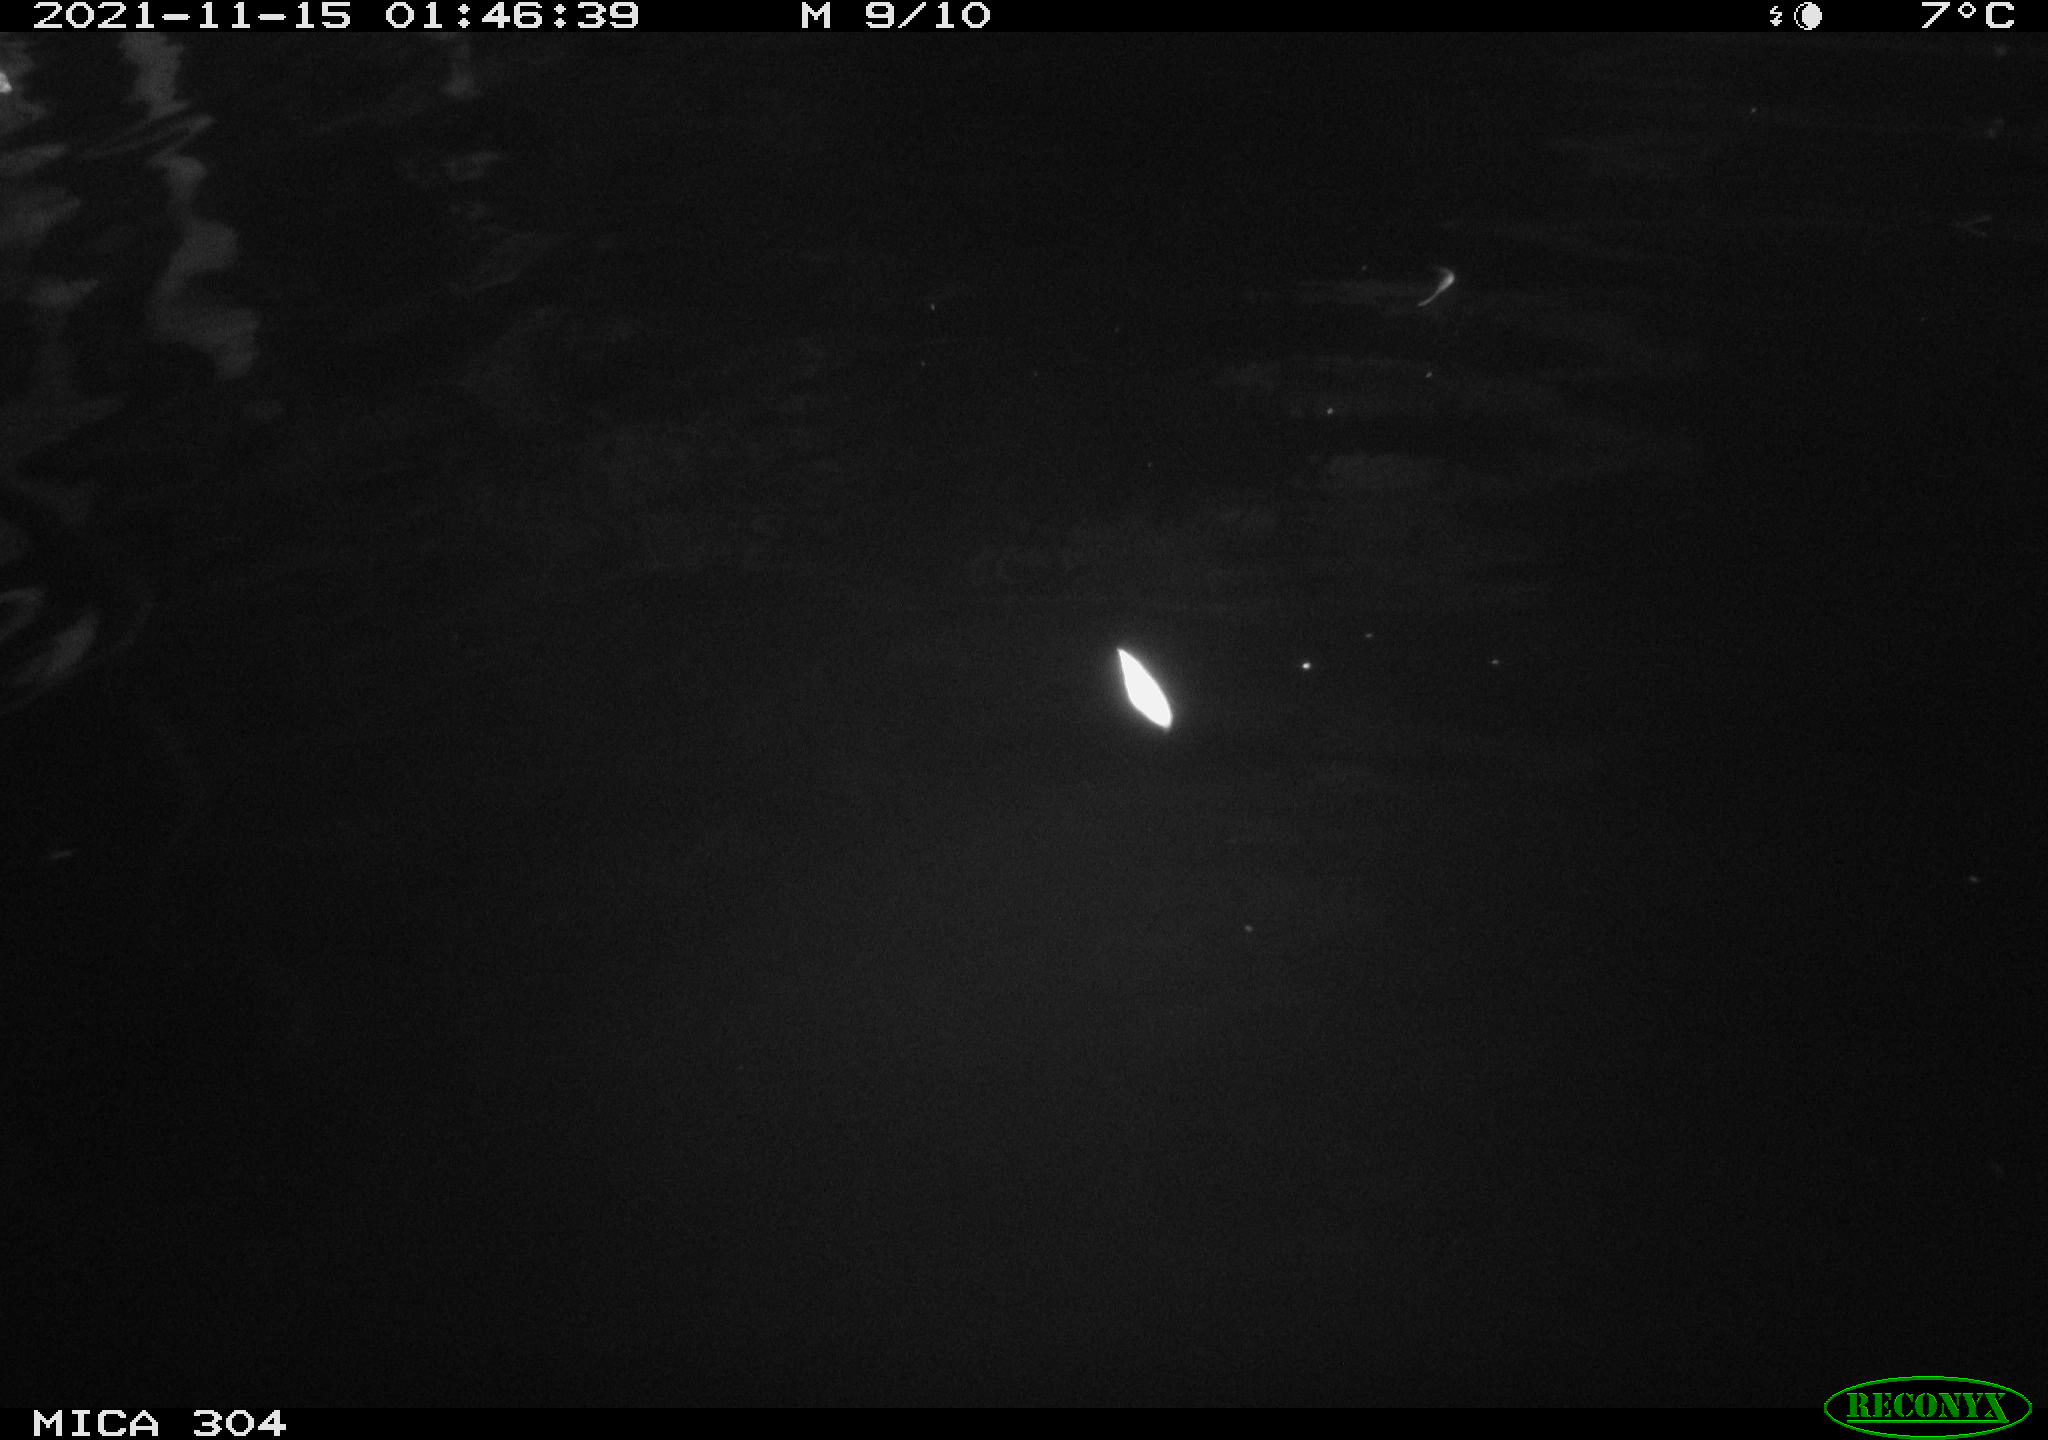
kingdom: Animalia
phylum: Chordata
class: Aves
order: Anseriformes
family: Anatidae
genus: Anas
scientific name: Anas platyrhynchos
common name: Mallard
